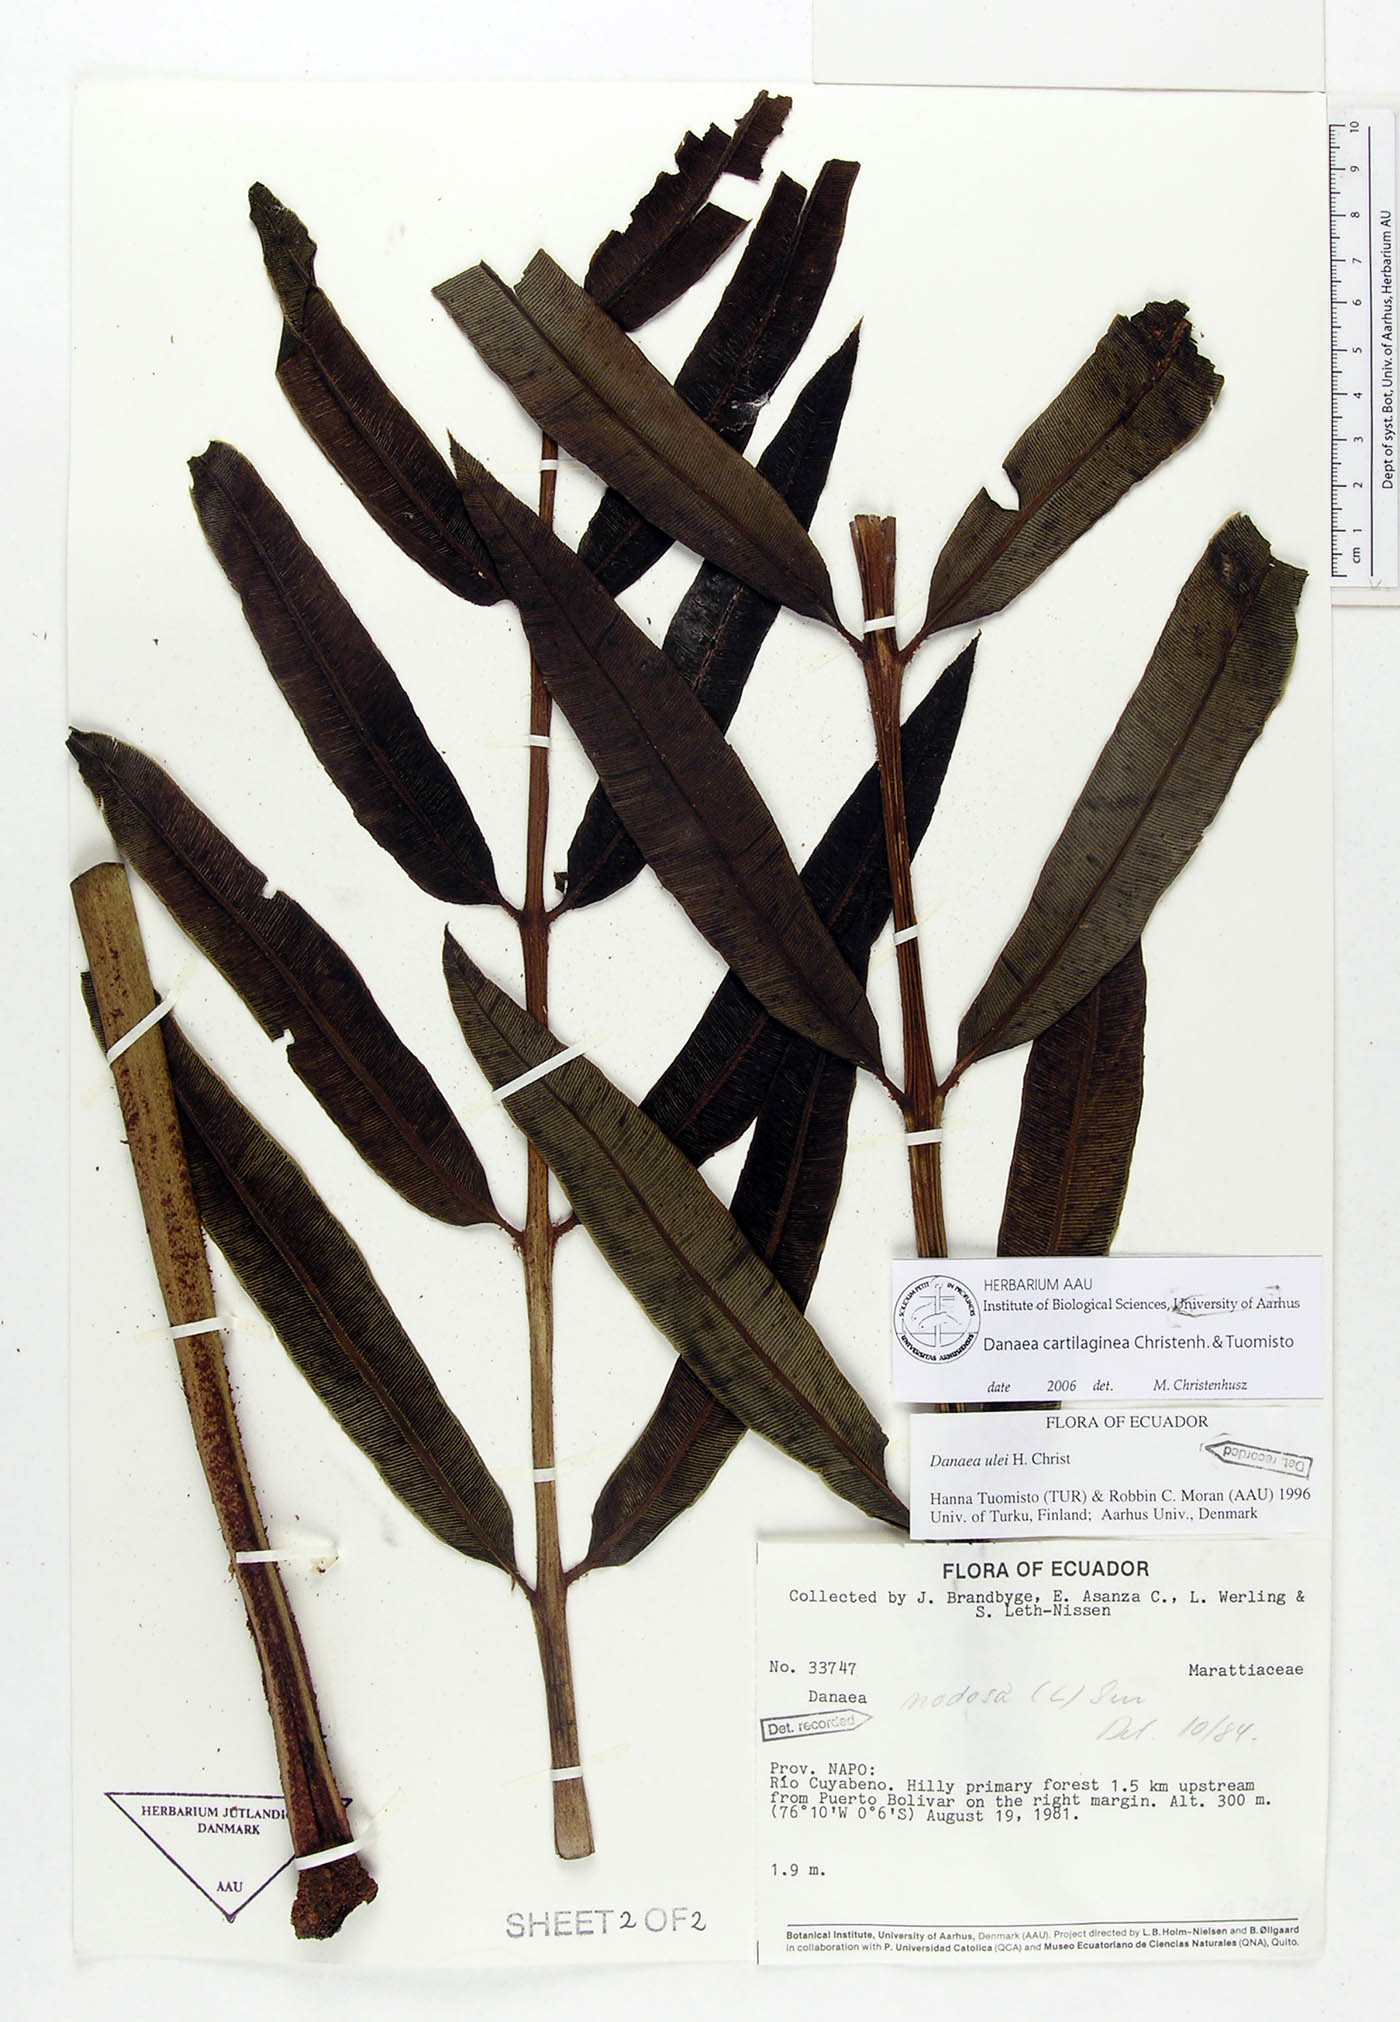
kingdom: Plantae
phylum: Tracheophyta
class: Polypodiopsida
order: Marattiales
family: Marattiaceae
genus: Danaea
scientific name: Danaea cartilaginea
